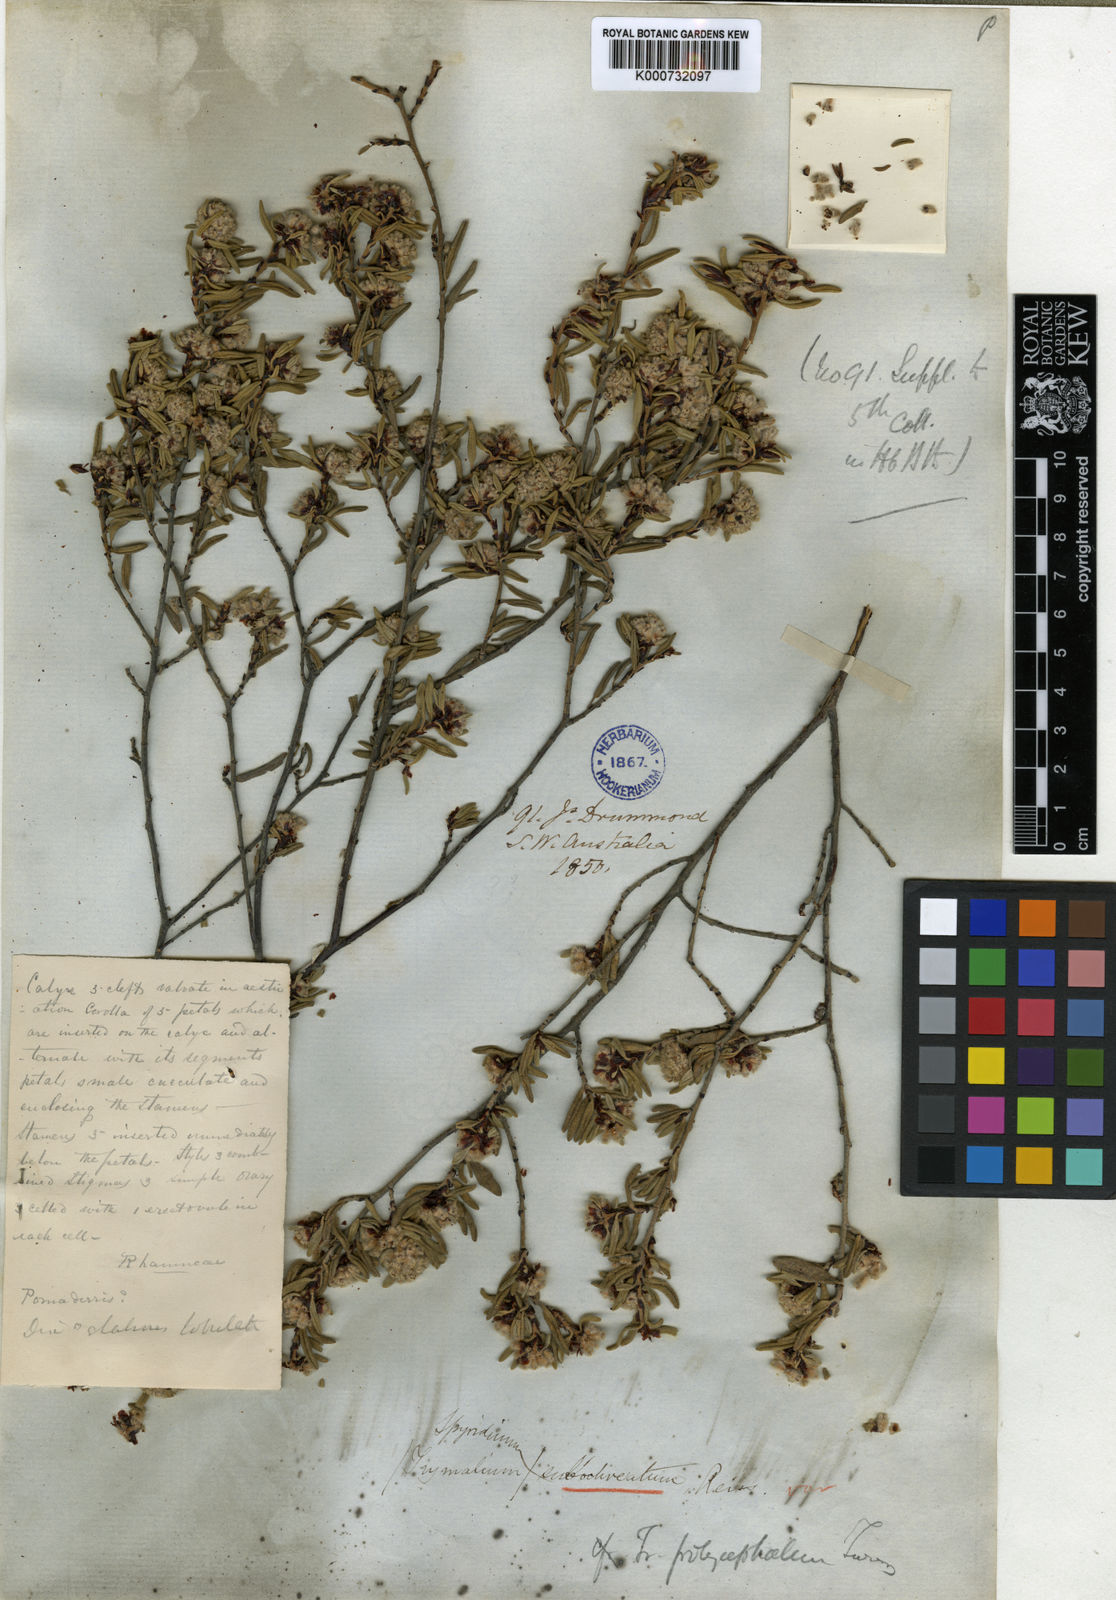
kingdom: Plantae
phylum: Tracheophyta
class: Magnoliopsida
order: Rosales
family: Rhamnaceae
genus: Spyridium
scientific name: Spyridium polycephalum
